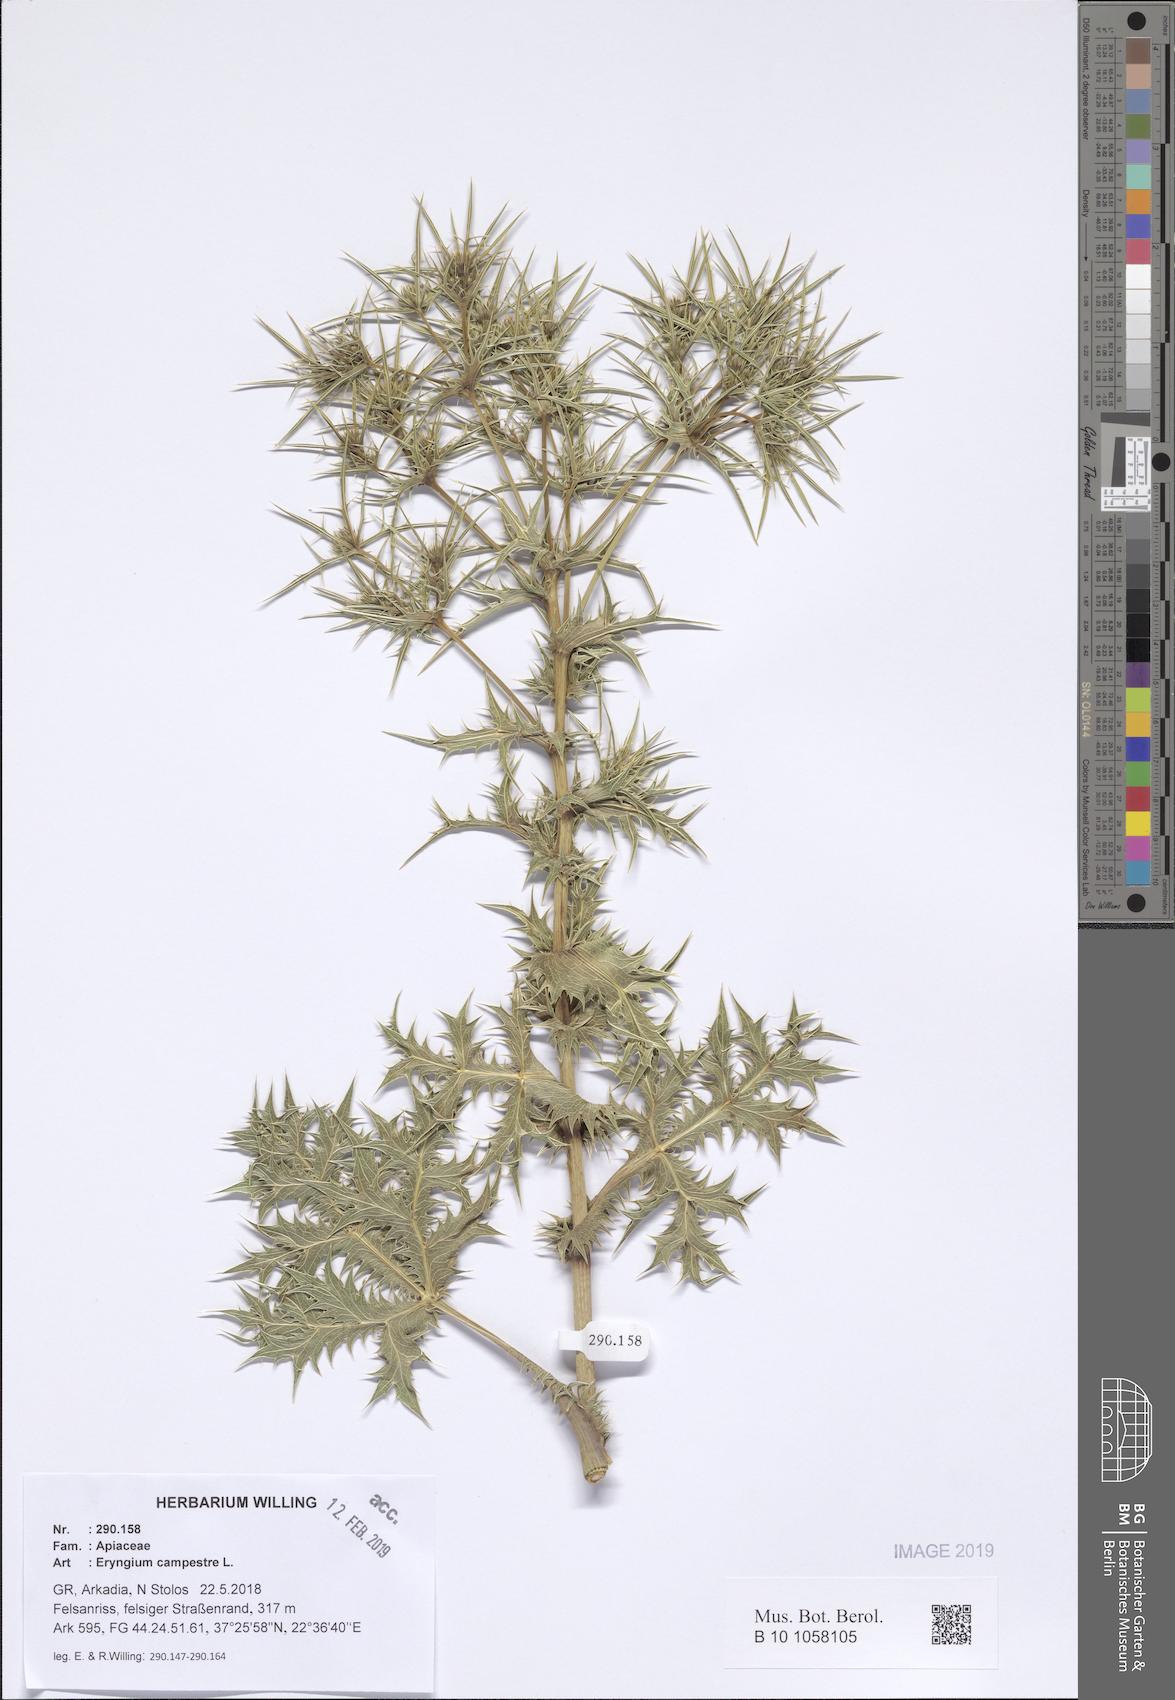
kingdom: Plantae
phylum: Tracheophyta
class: Magnoliopsida
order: Apiales
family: Apiaceae
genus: Eryngium
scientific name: Eryngium campestre
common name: Field eryngo
